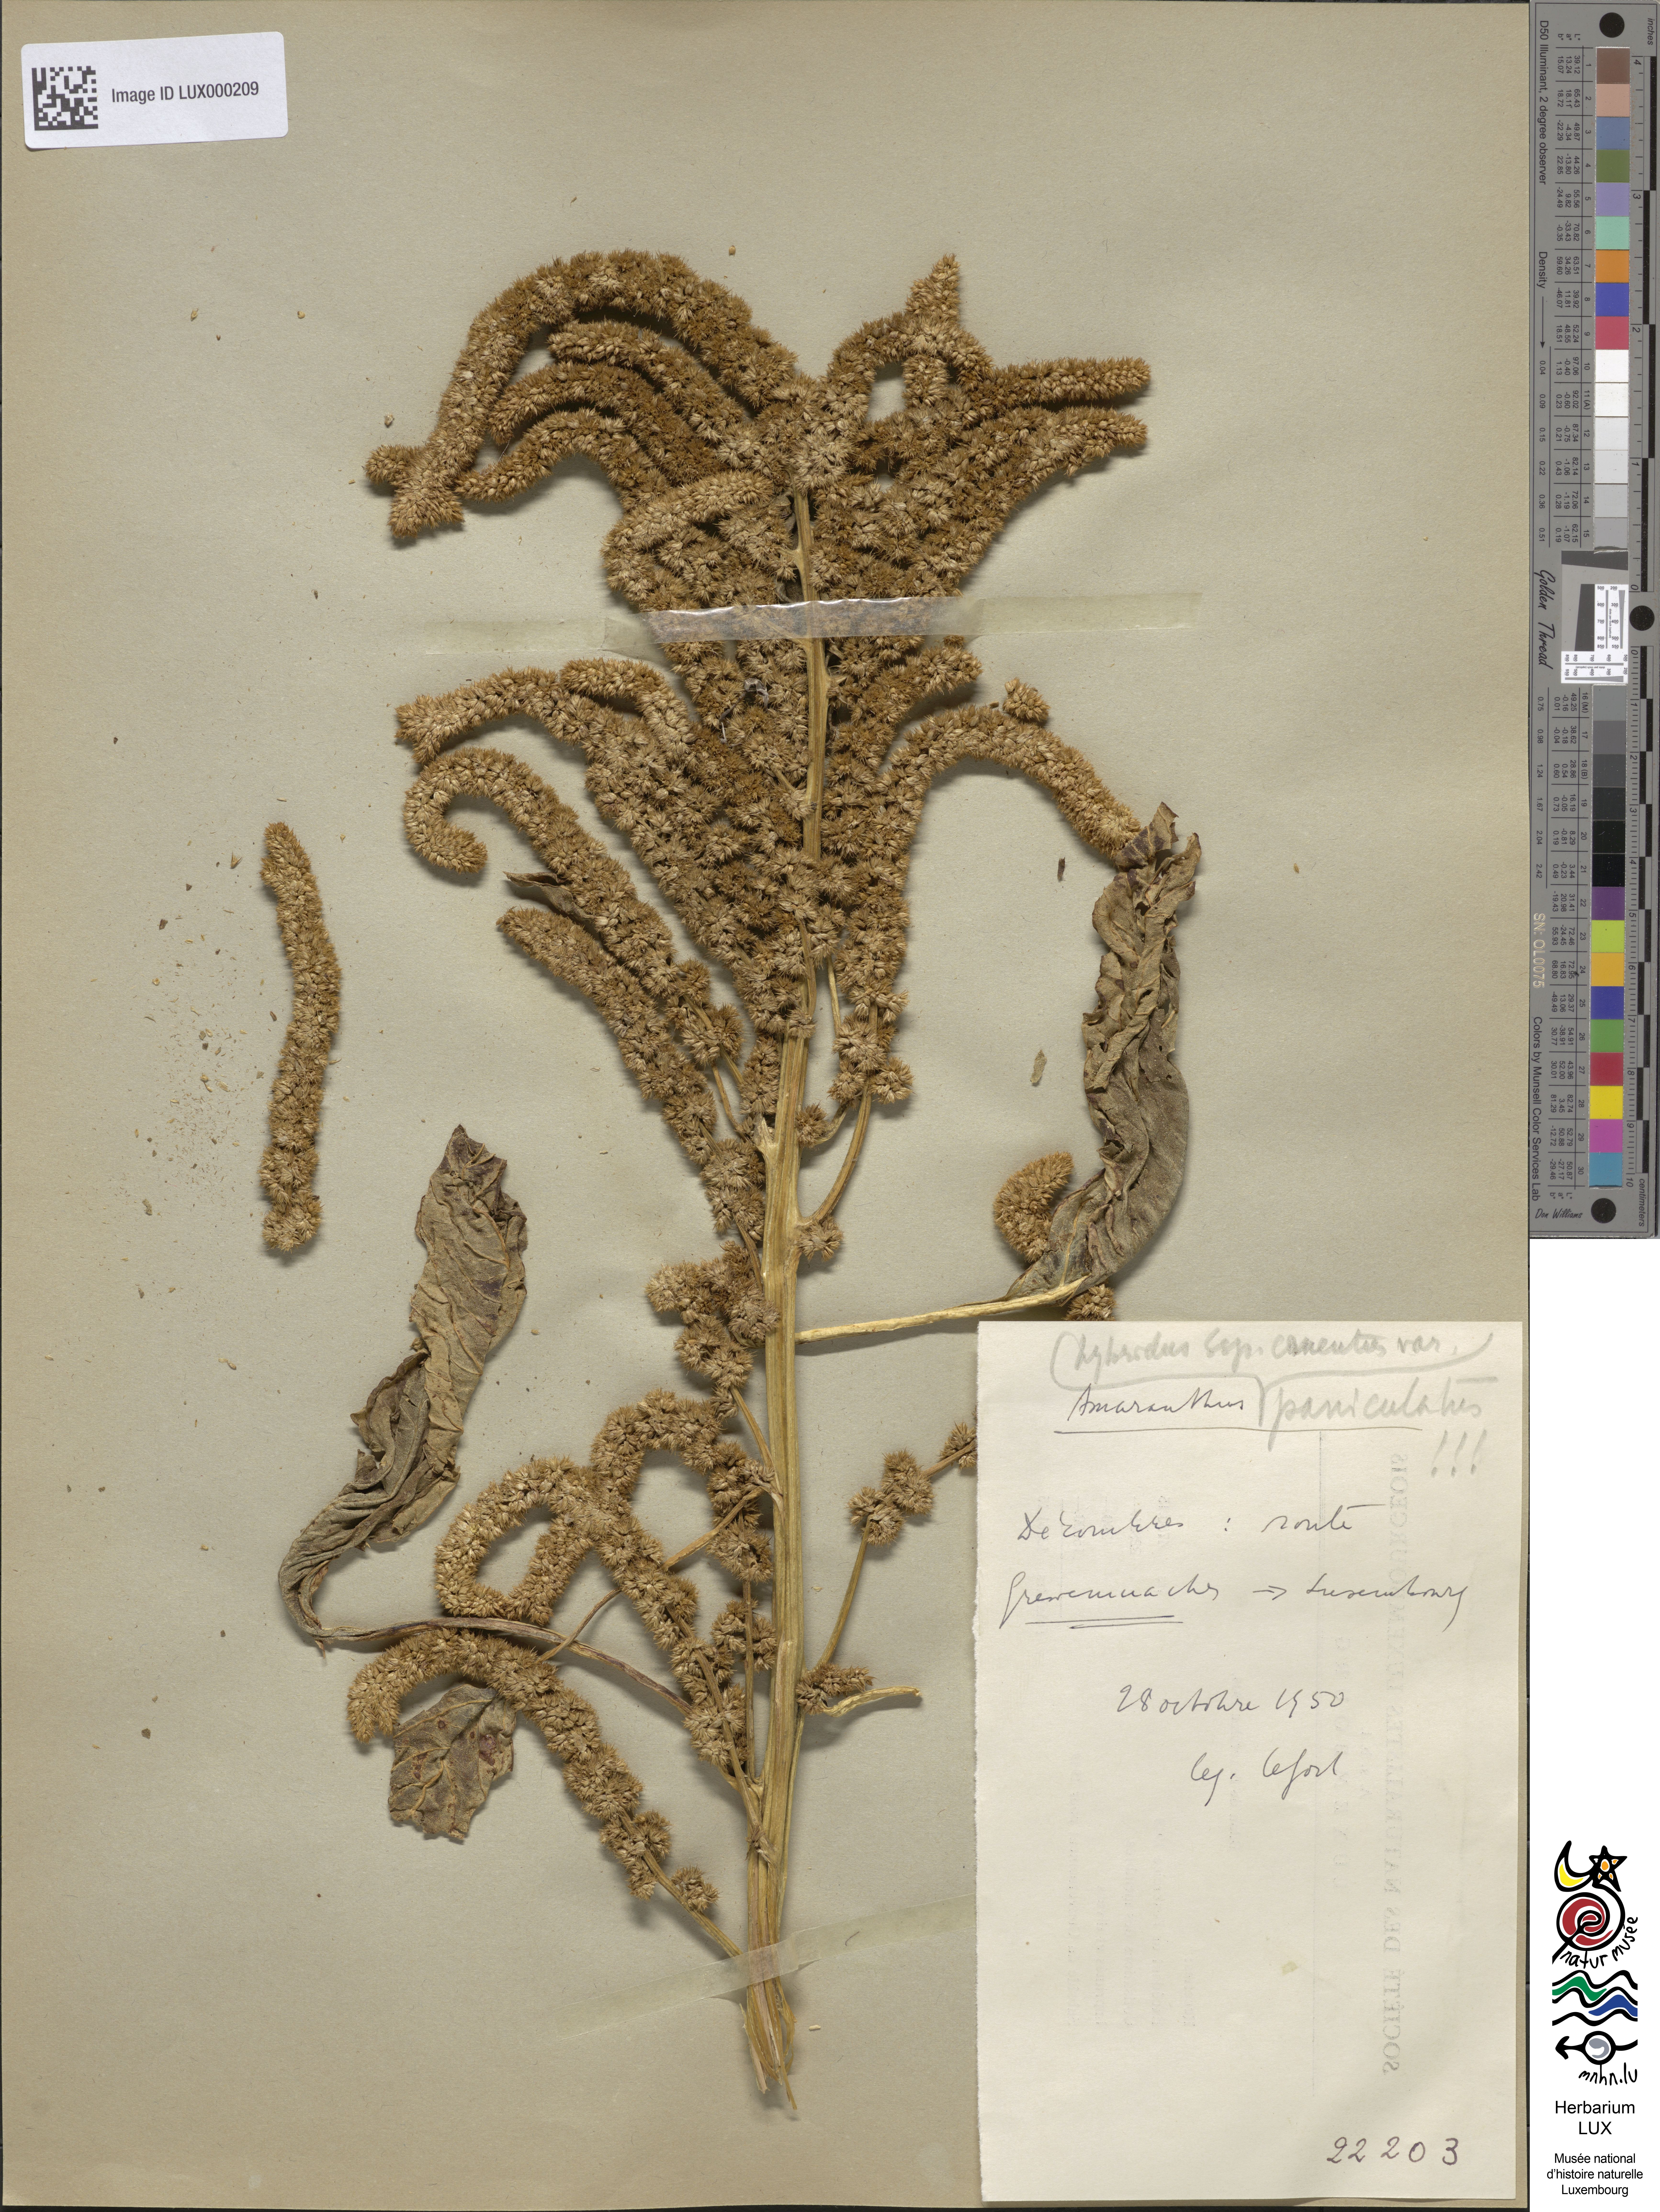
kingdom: Plantae
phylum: Tracheophyta
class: Magnoliopsida
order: Caryophyllales
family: Amaranthaceae
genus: Amaranthus
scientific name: Amaranthus hybridus
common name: Green amaranth
